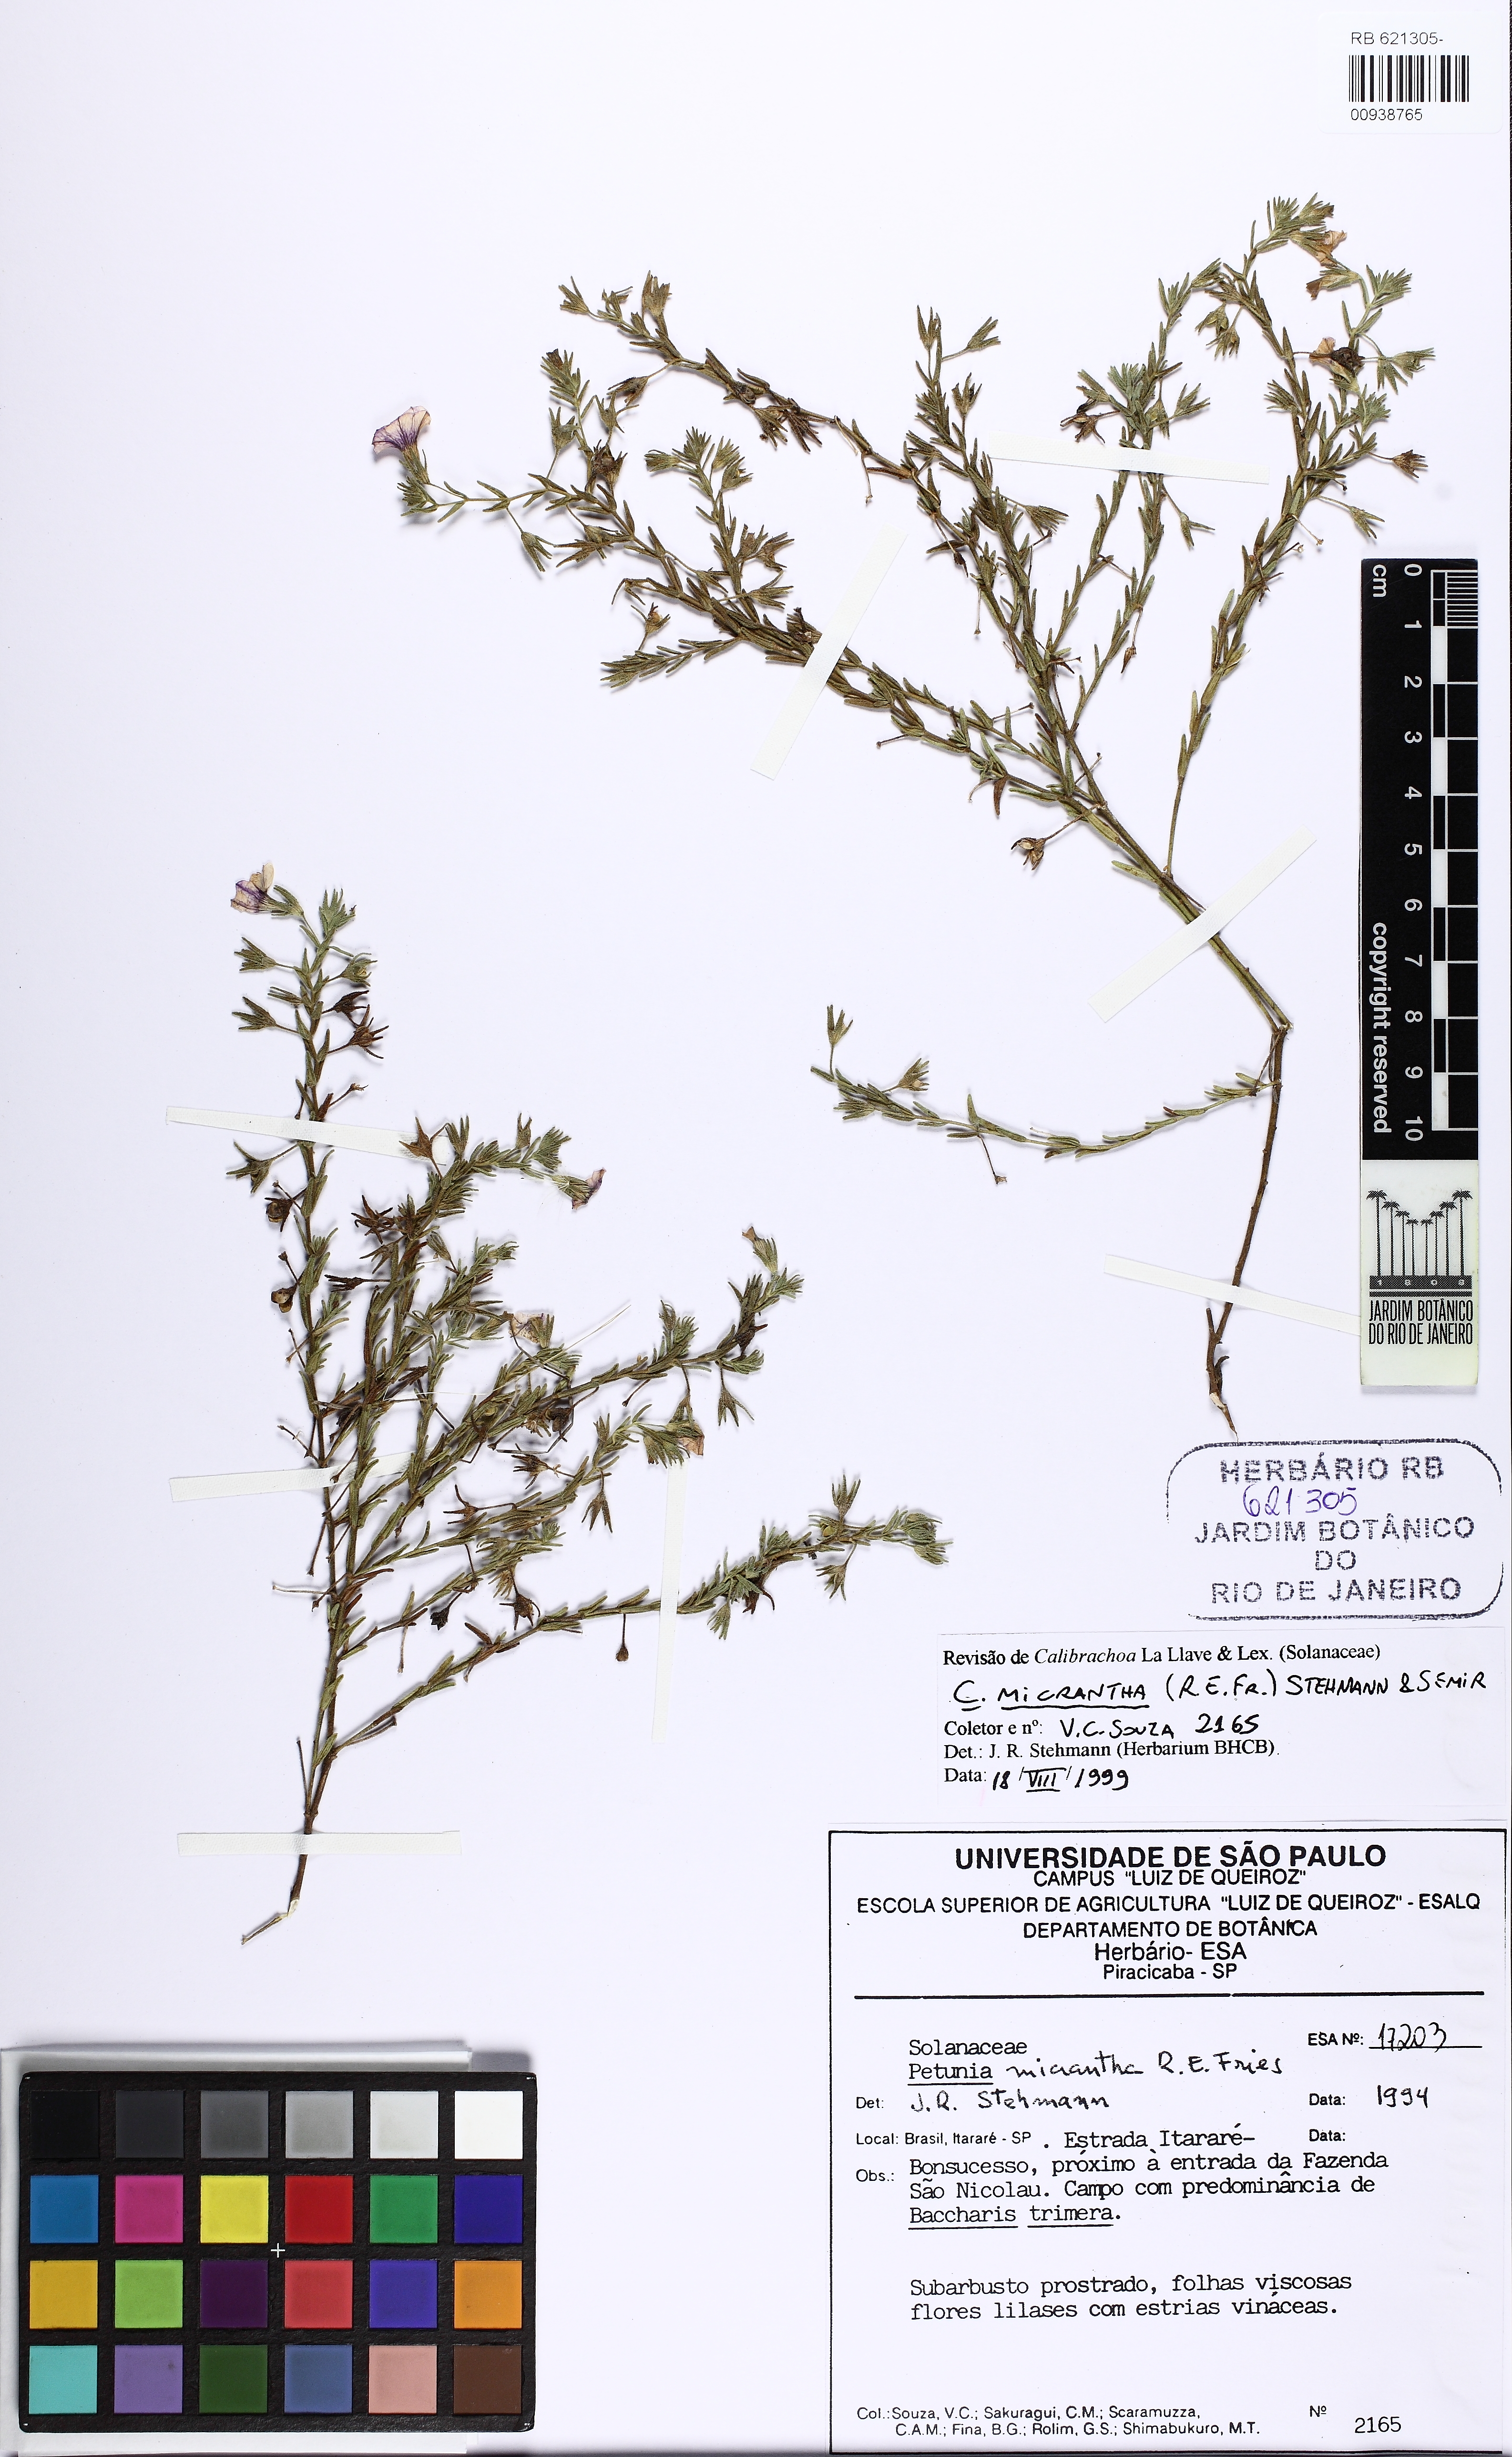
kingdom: Plantae
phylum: Tracheophyta
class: Magnoliopsida
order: Solanales
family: Solanaceae
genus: Calibrachoa
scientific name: Calibrachoa micrantha
